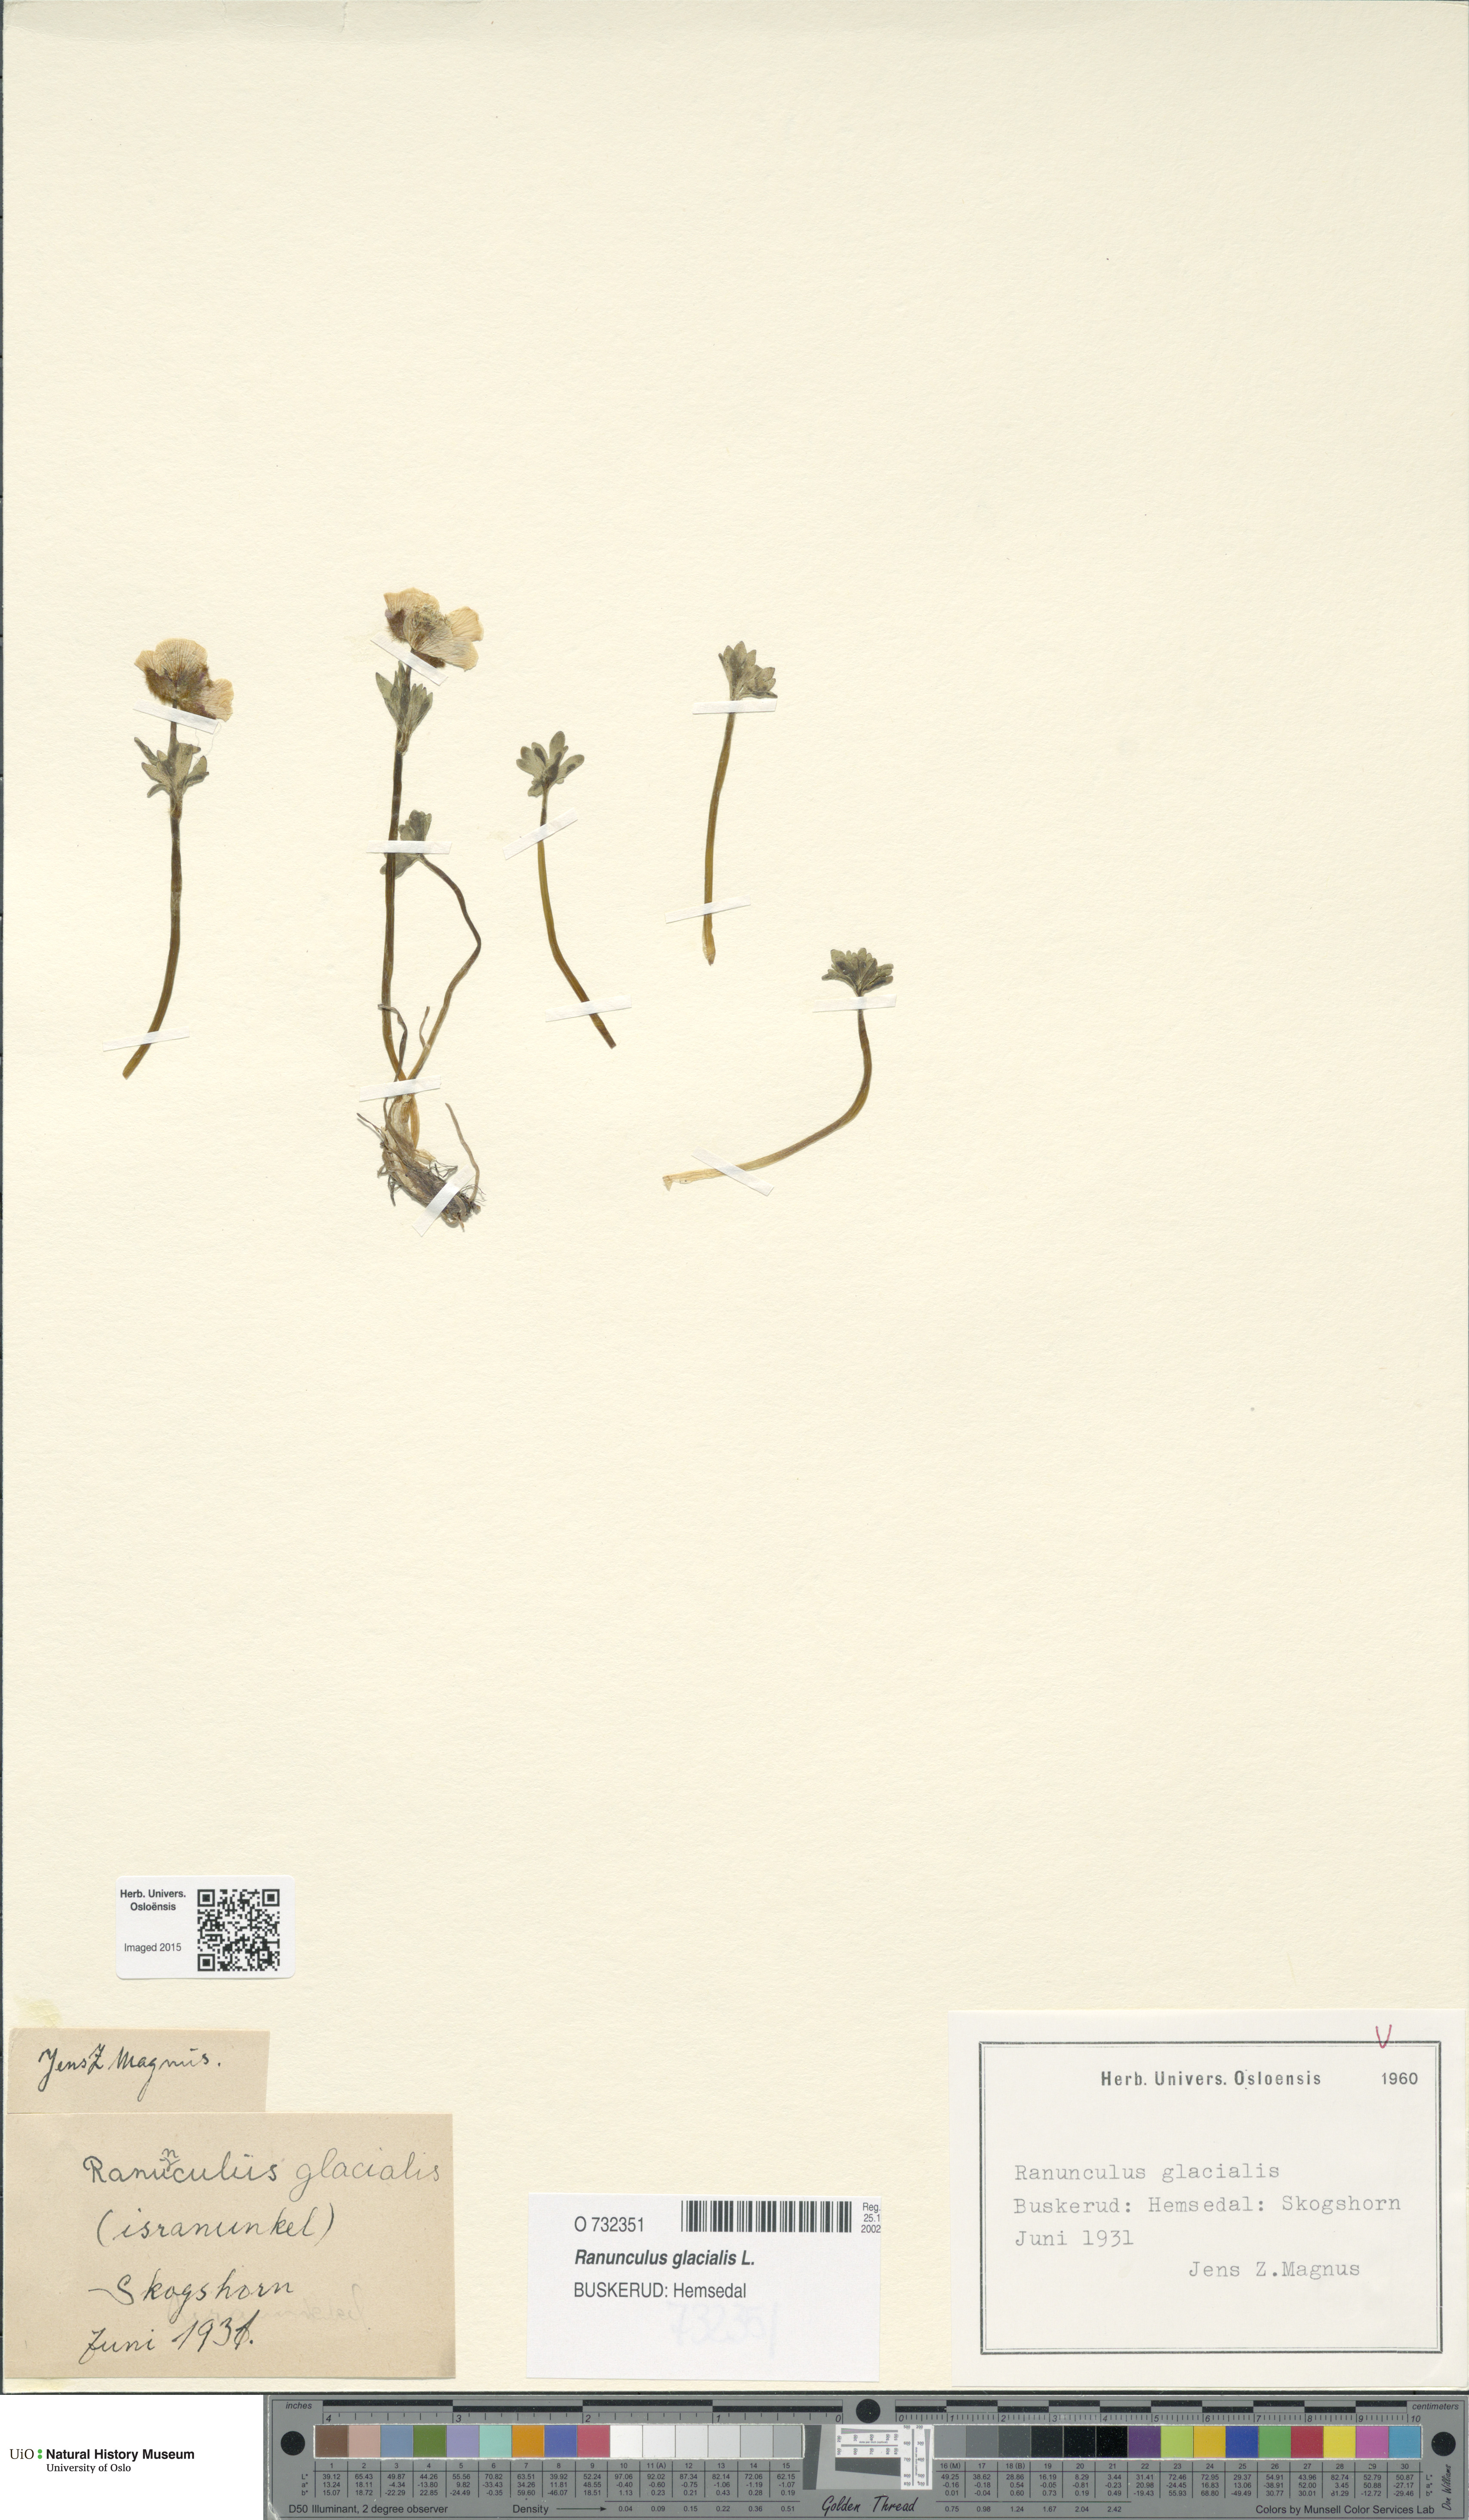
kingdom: Plantae
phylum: Tracheophyta
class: Magnoliopsida
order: Ranunculales
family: Ranunculaceae
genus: Ranunculus
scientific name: Ranunculus glacialis
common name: Glacier buttercup
